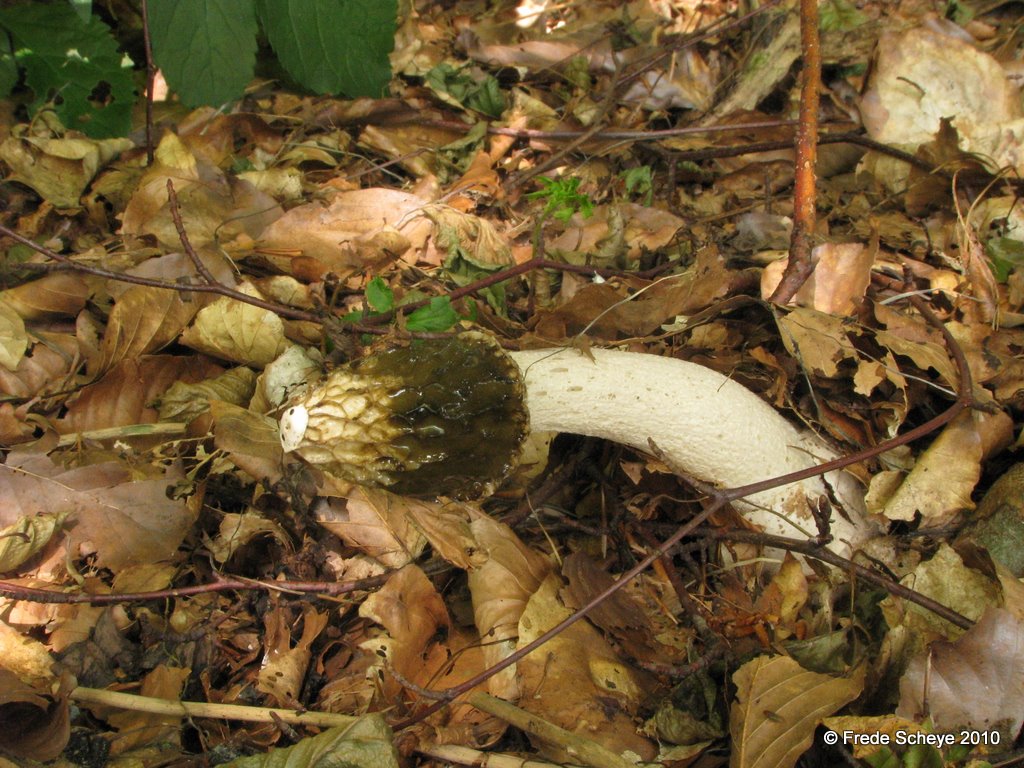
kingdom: Fungi
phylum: Basidiomycota
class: Agaricomycetes
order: Phallales
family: Phallaceae
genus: Phallus
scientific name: Phallus impudicus
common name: almindelig stinksvamp
